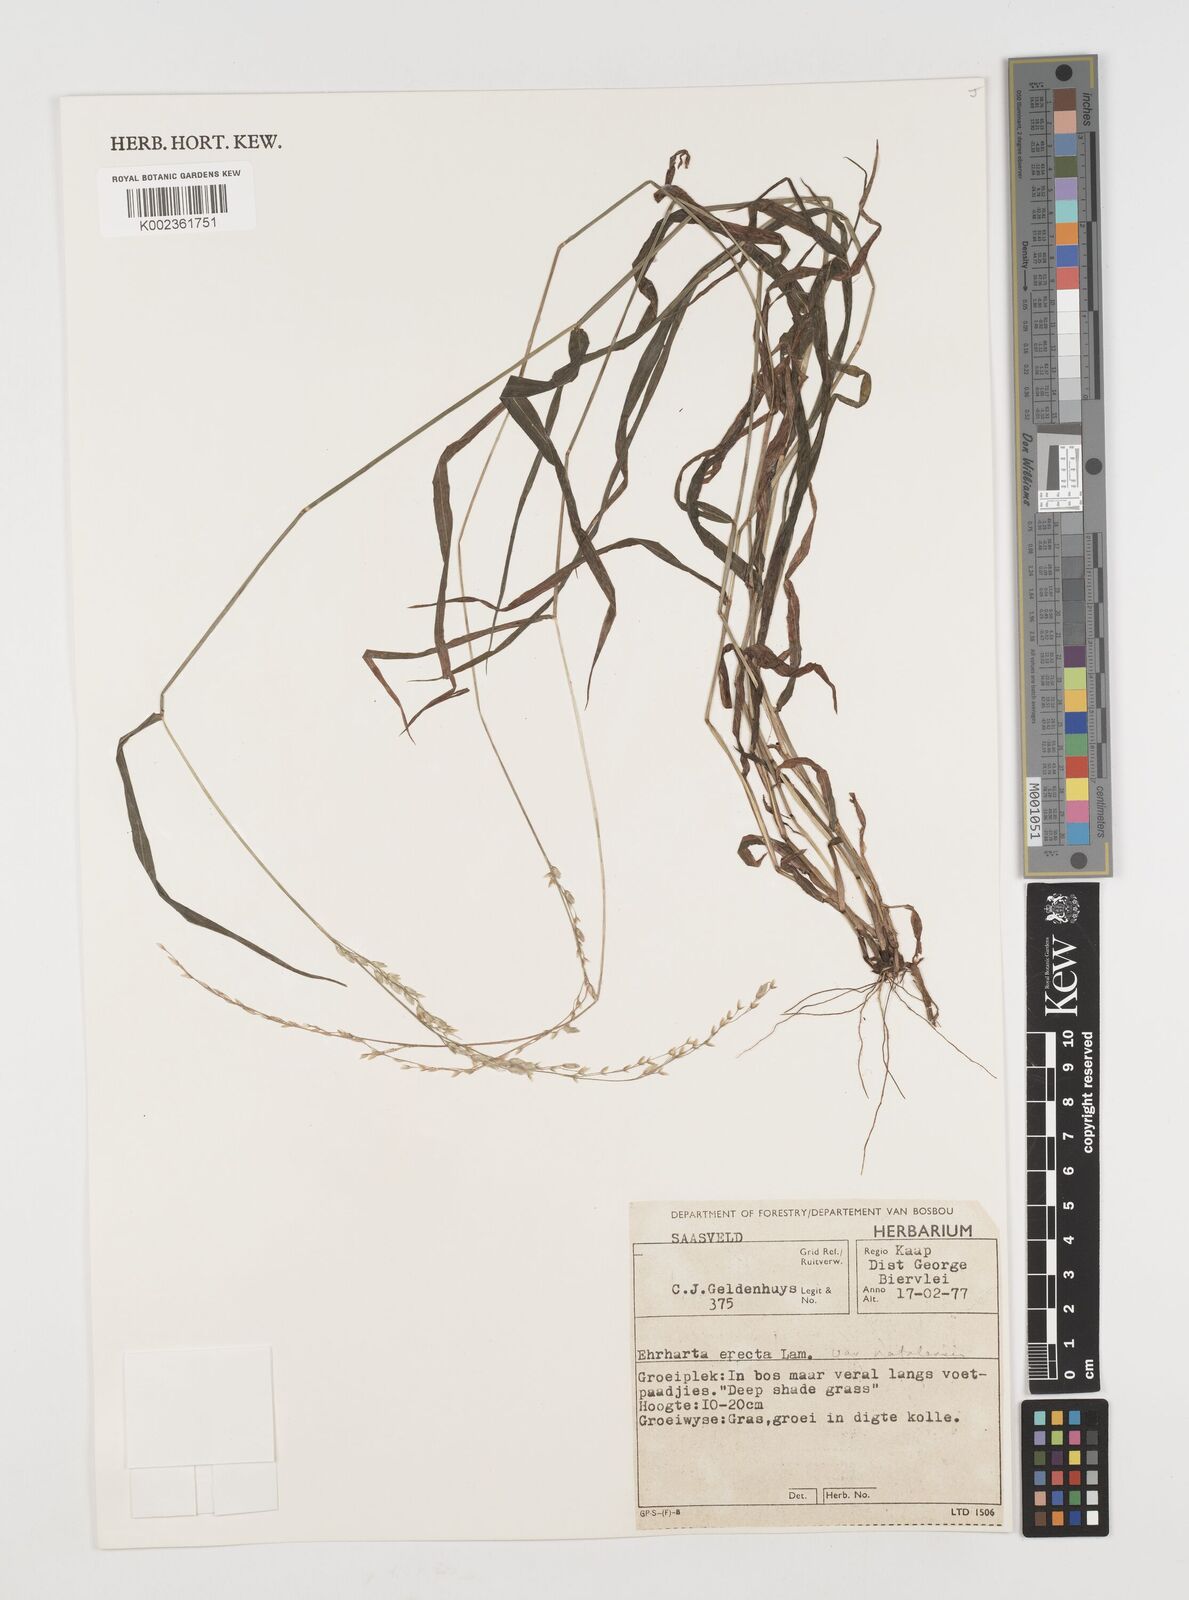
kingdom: Plantae
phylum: Tracheophyta
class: Liliopsida
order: Poales
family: Poaceae
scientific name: Poaceae
